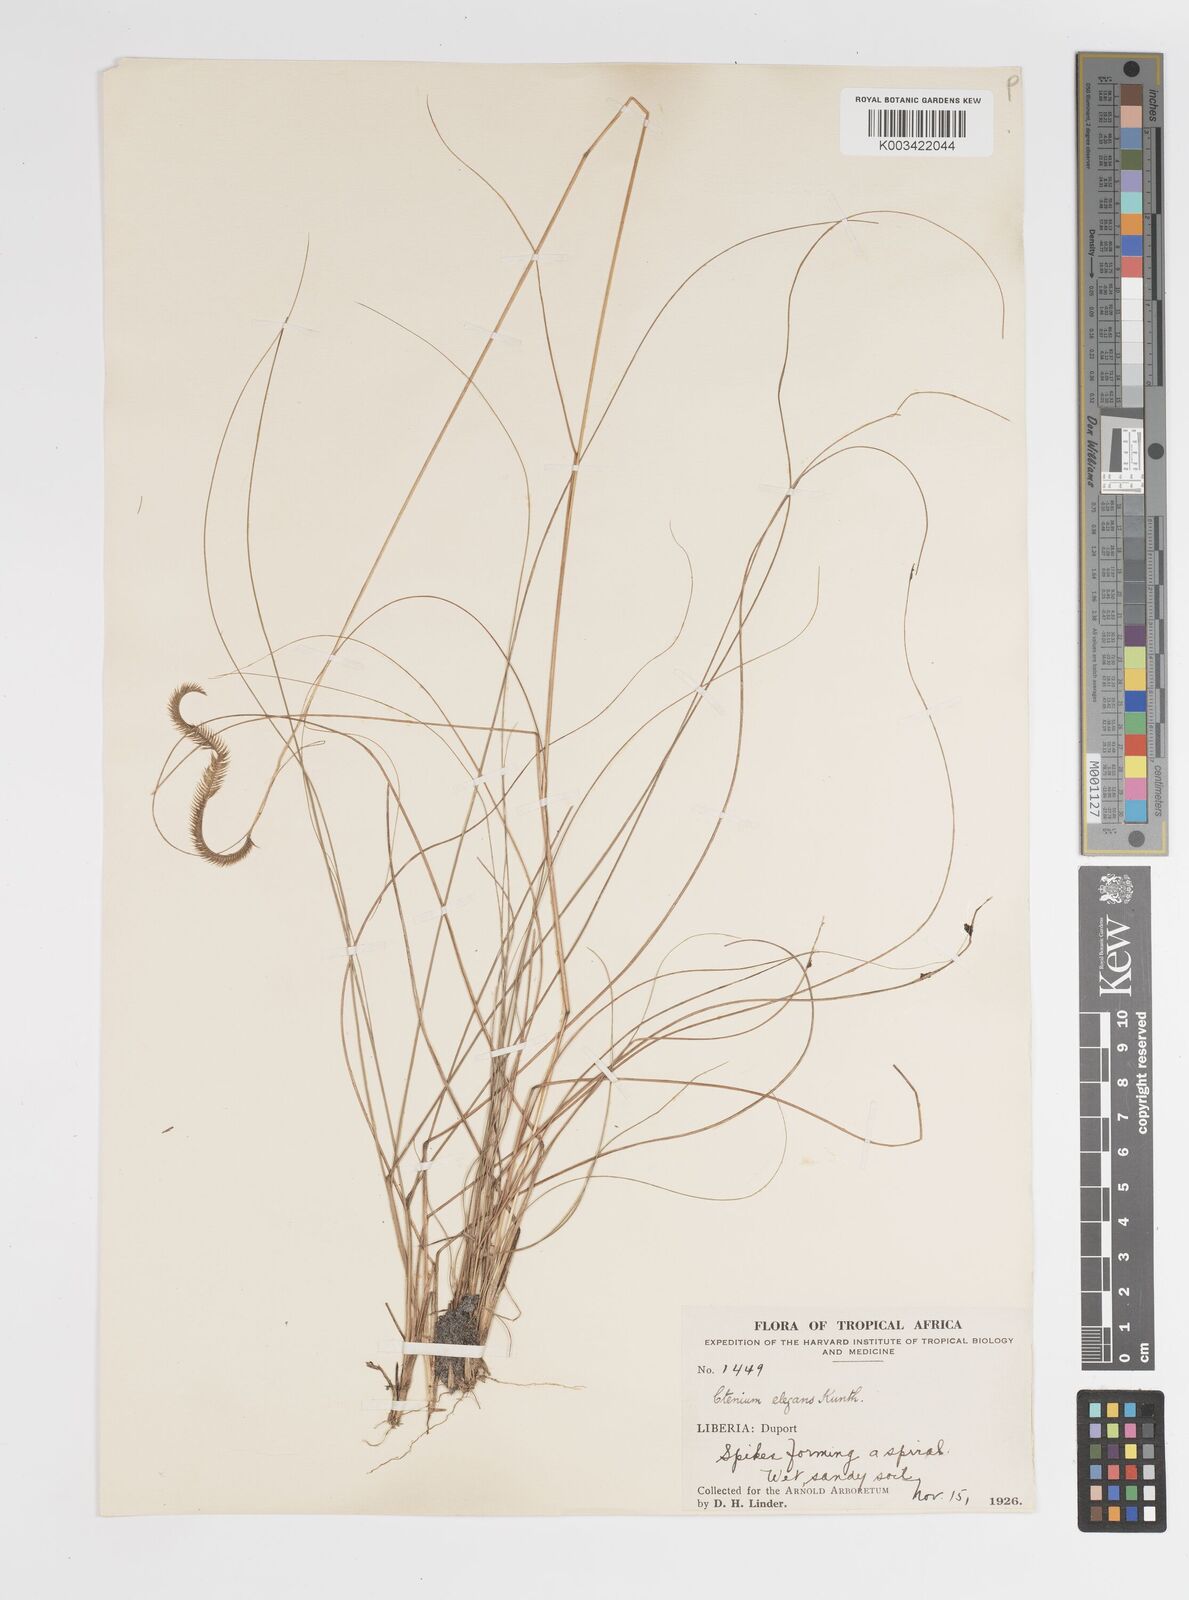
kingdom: Plantae
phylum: Tracheophyta
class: Liliopsida
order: Poales
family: Poaceae
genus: Ctenium
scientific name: Ctenium newtonii
